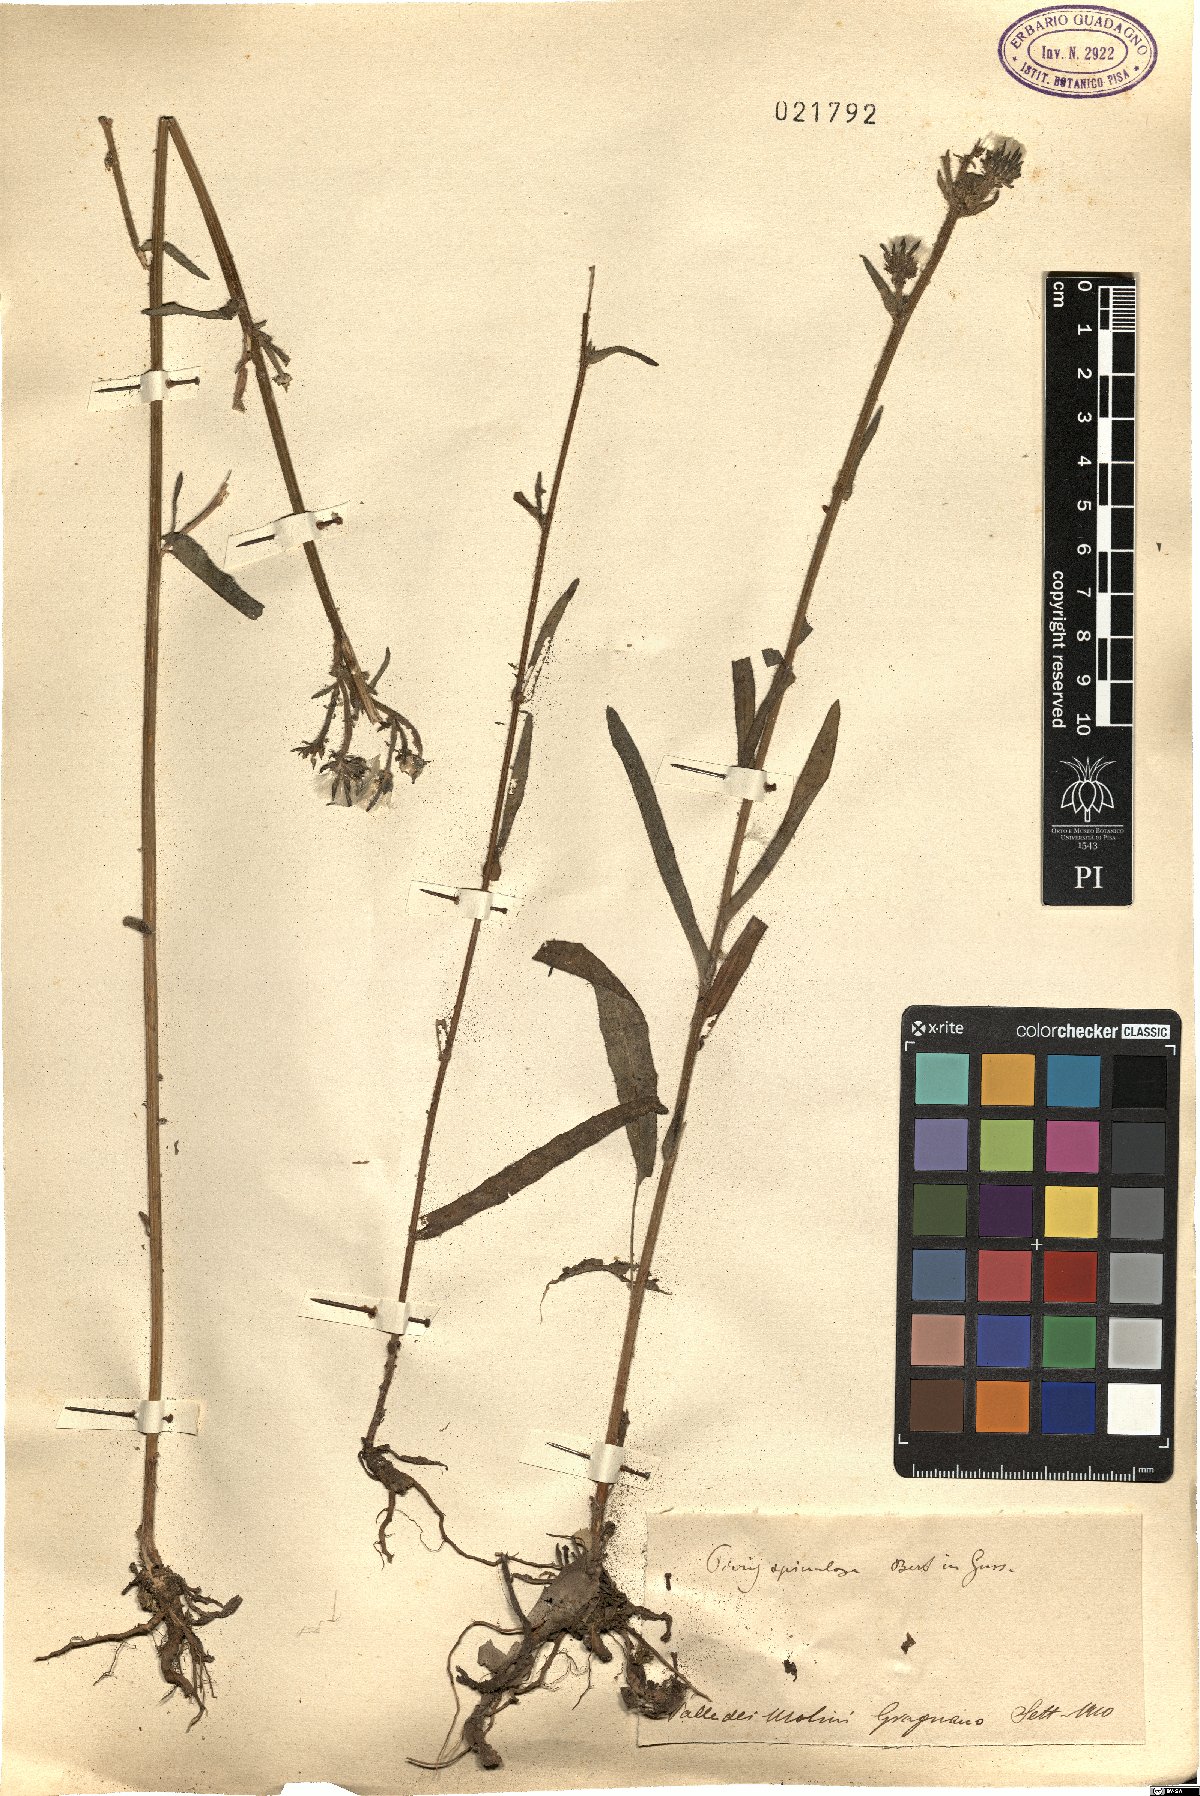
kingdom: Plantae
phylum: Tracheophyta
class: Magnoliopsida
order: Asterales
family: Asteraceae
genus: Picris
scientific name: Picris hieracioides
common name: Hawkweed oxtongue
